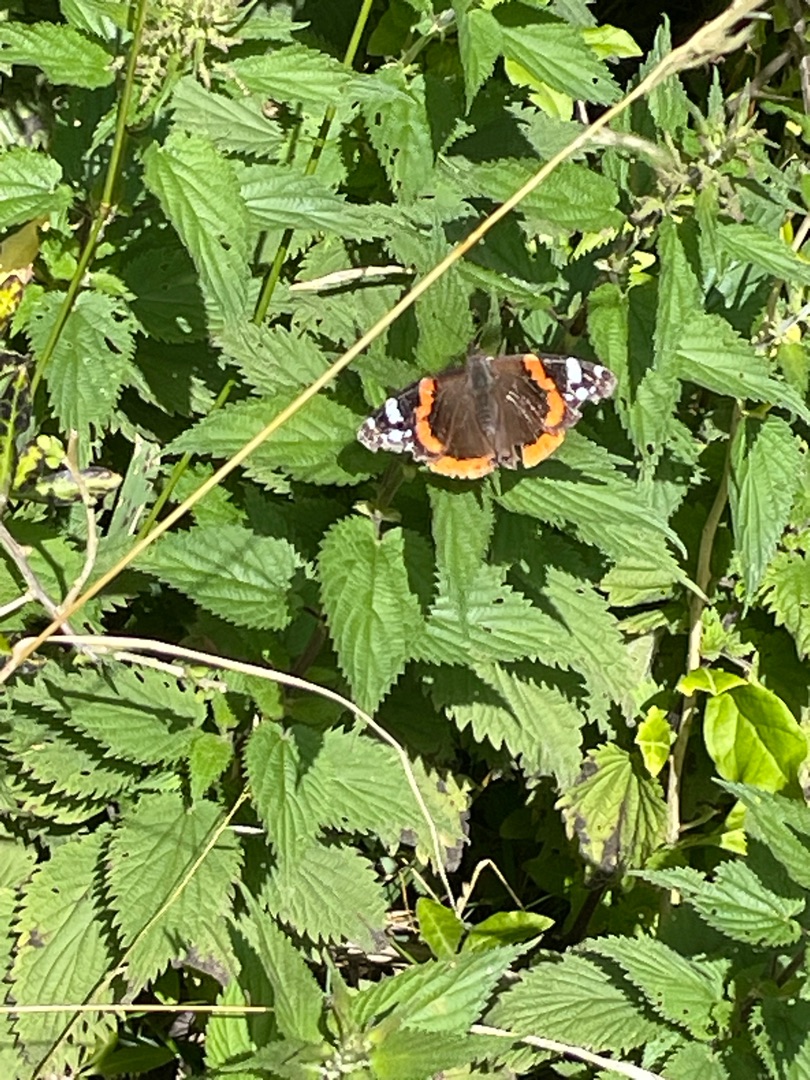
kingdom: Animalia
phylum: Arthropoda
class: Insecta
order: Lepidoptera
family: Nymphalidae
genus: Vanessa
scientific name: Vanessa atalanta
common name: Admiral
